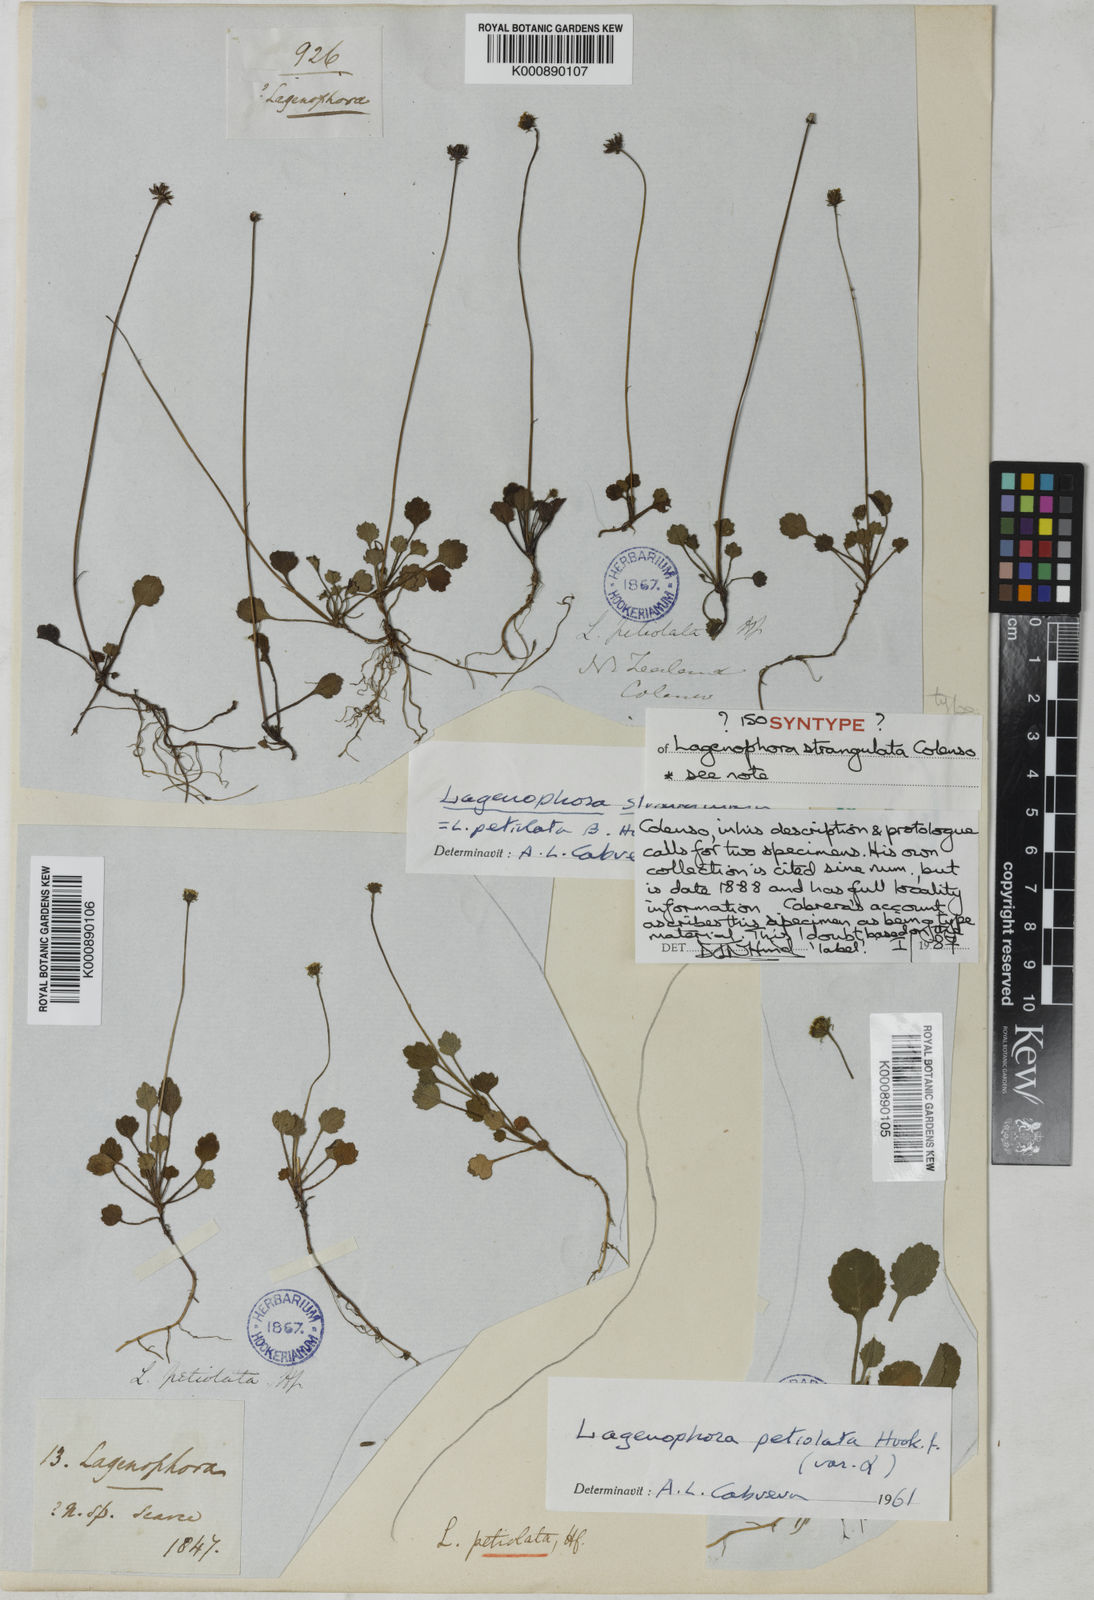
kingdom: Plantae
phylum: Tracheophyta
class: Magnoliopsida
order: Asterales
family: Asteraceae
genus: Lagenophora
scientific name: Lagenophora strangulata
